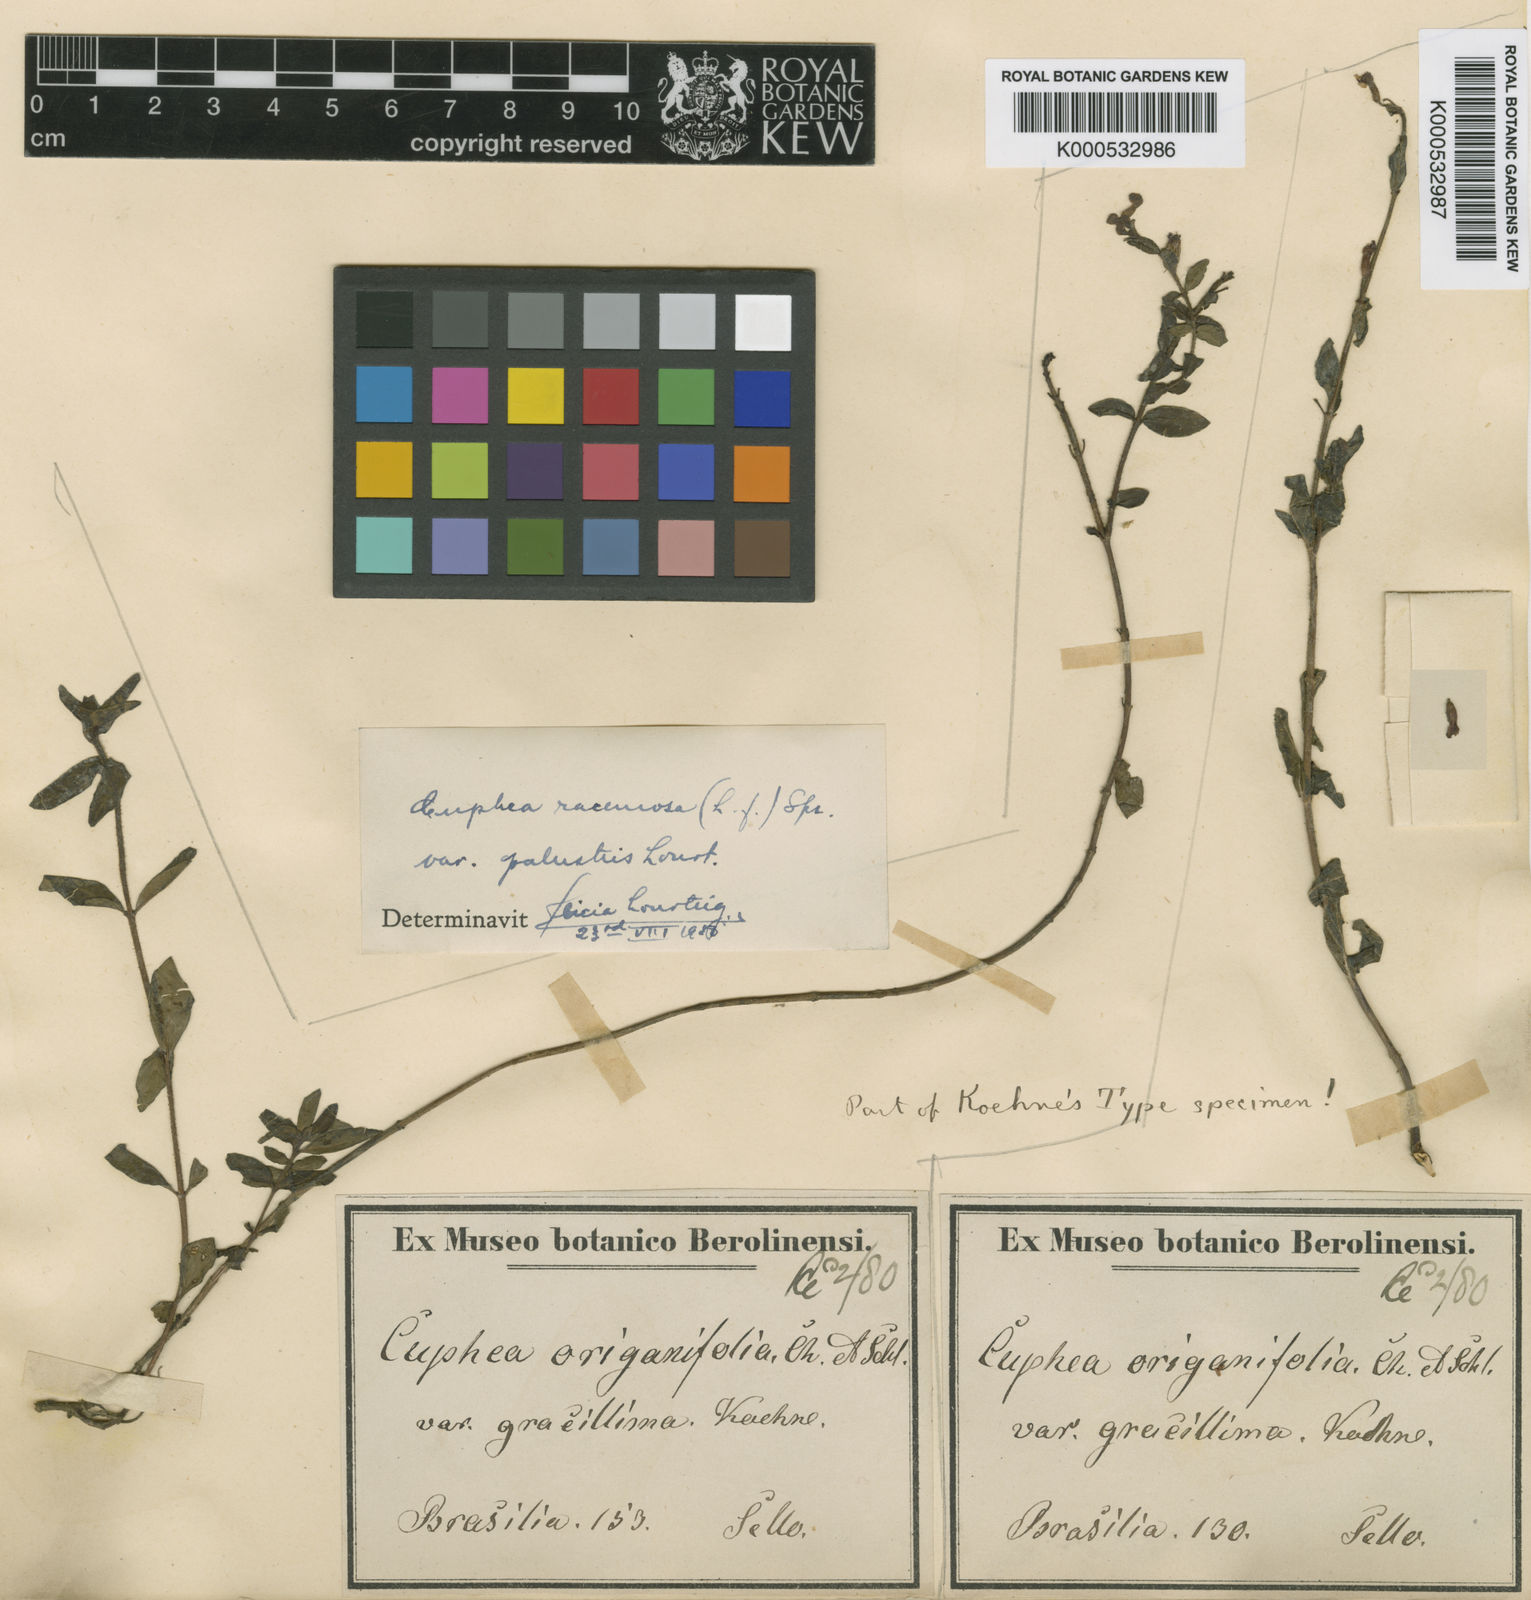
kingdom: Plantae
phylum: Tracheophyta
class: Magnoliopsida
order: Myrtales
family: Lythraceae
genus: Cuphea
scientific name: Cuphea racemosa
